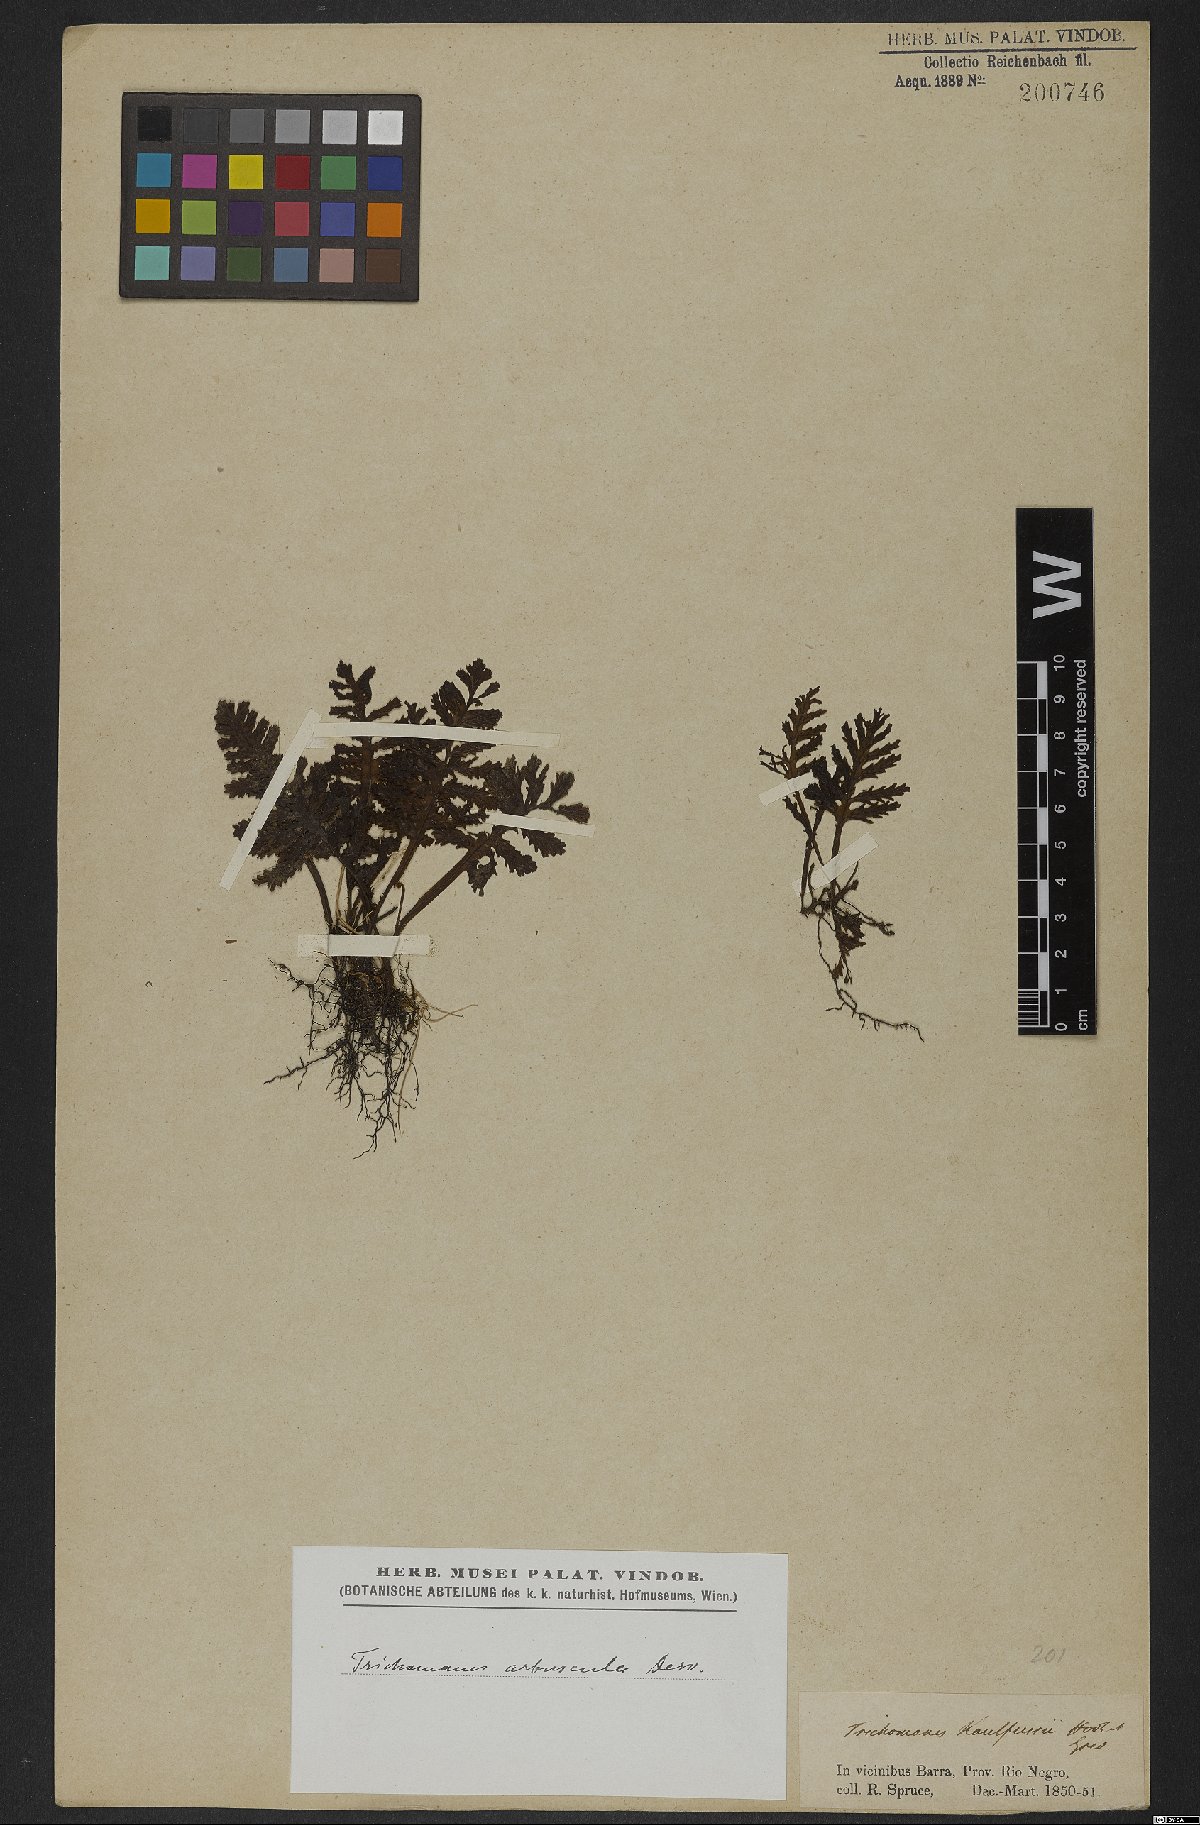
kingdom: Plantae
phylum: Tracheophyta
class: Polypodiopsida
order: Hymenophyllales
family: Hymenophyllaceae
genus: Trichomanes
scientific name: Trichomanes arbuscula
